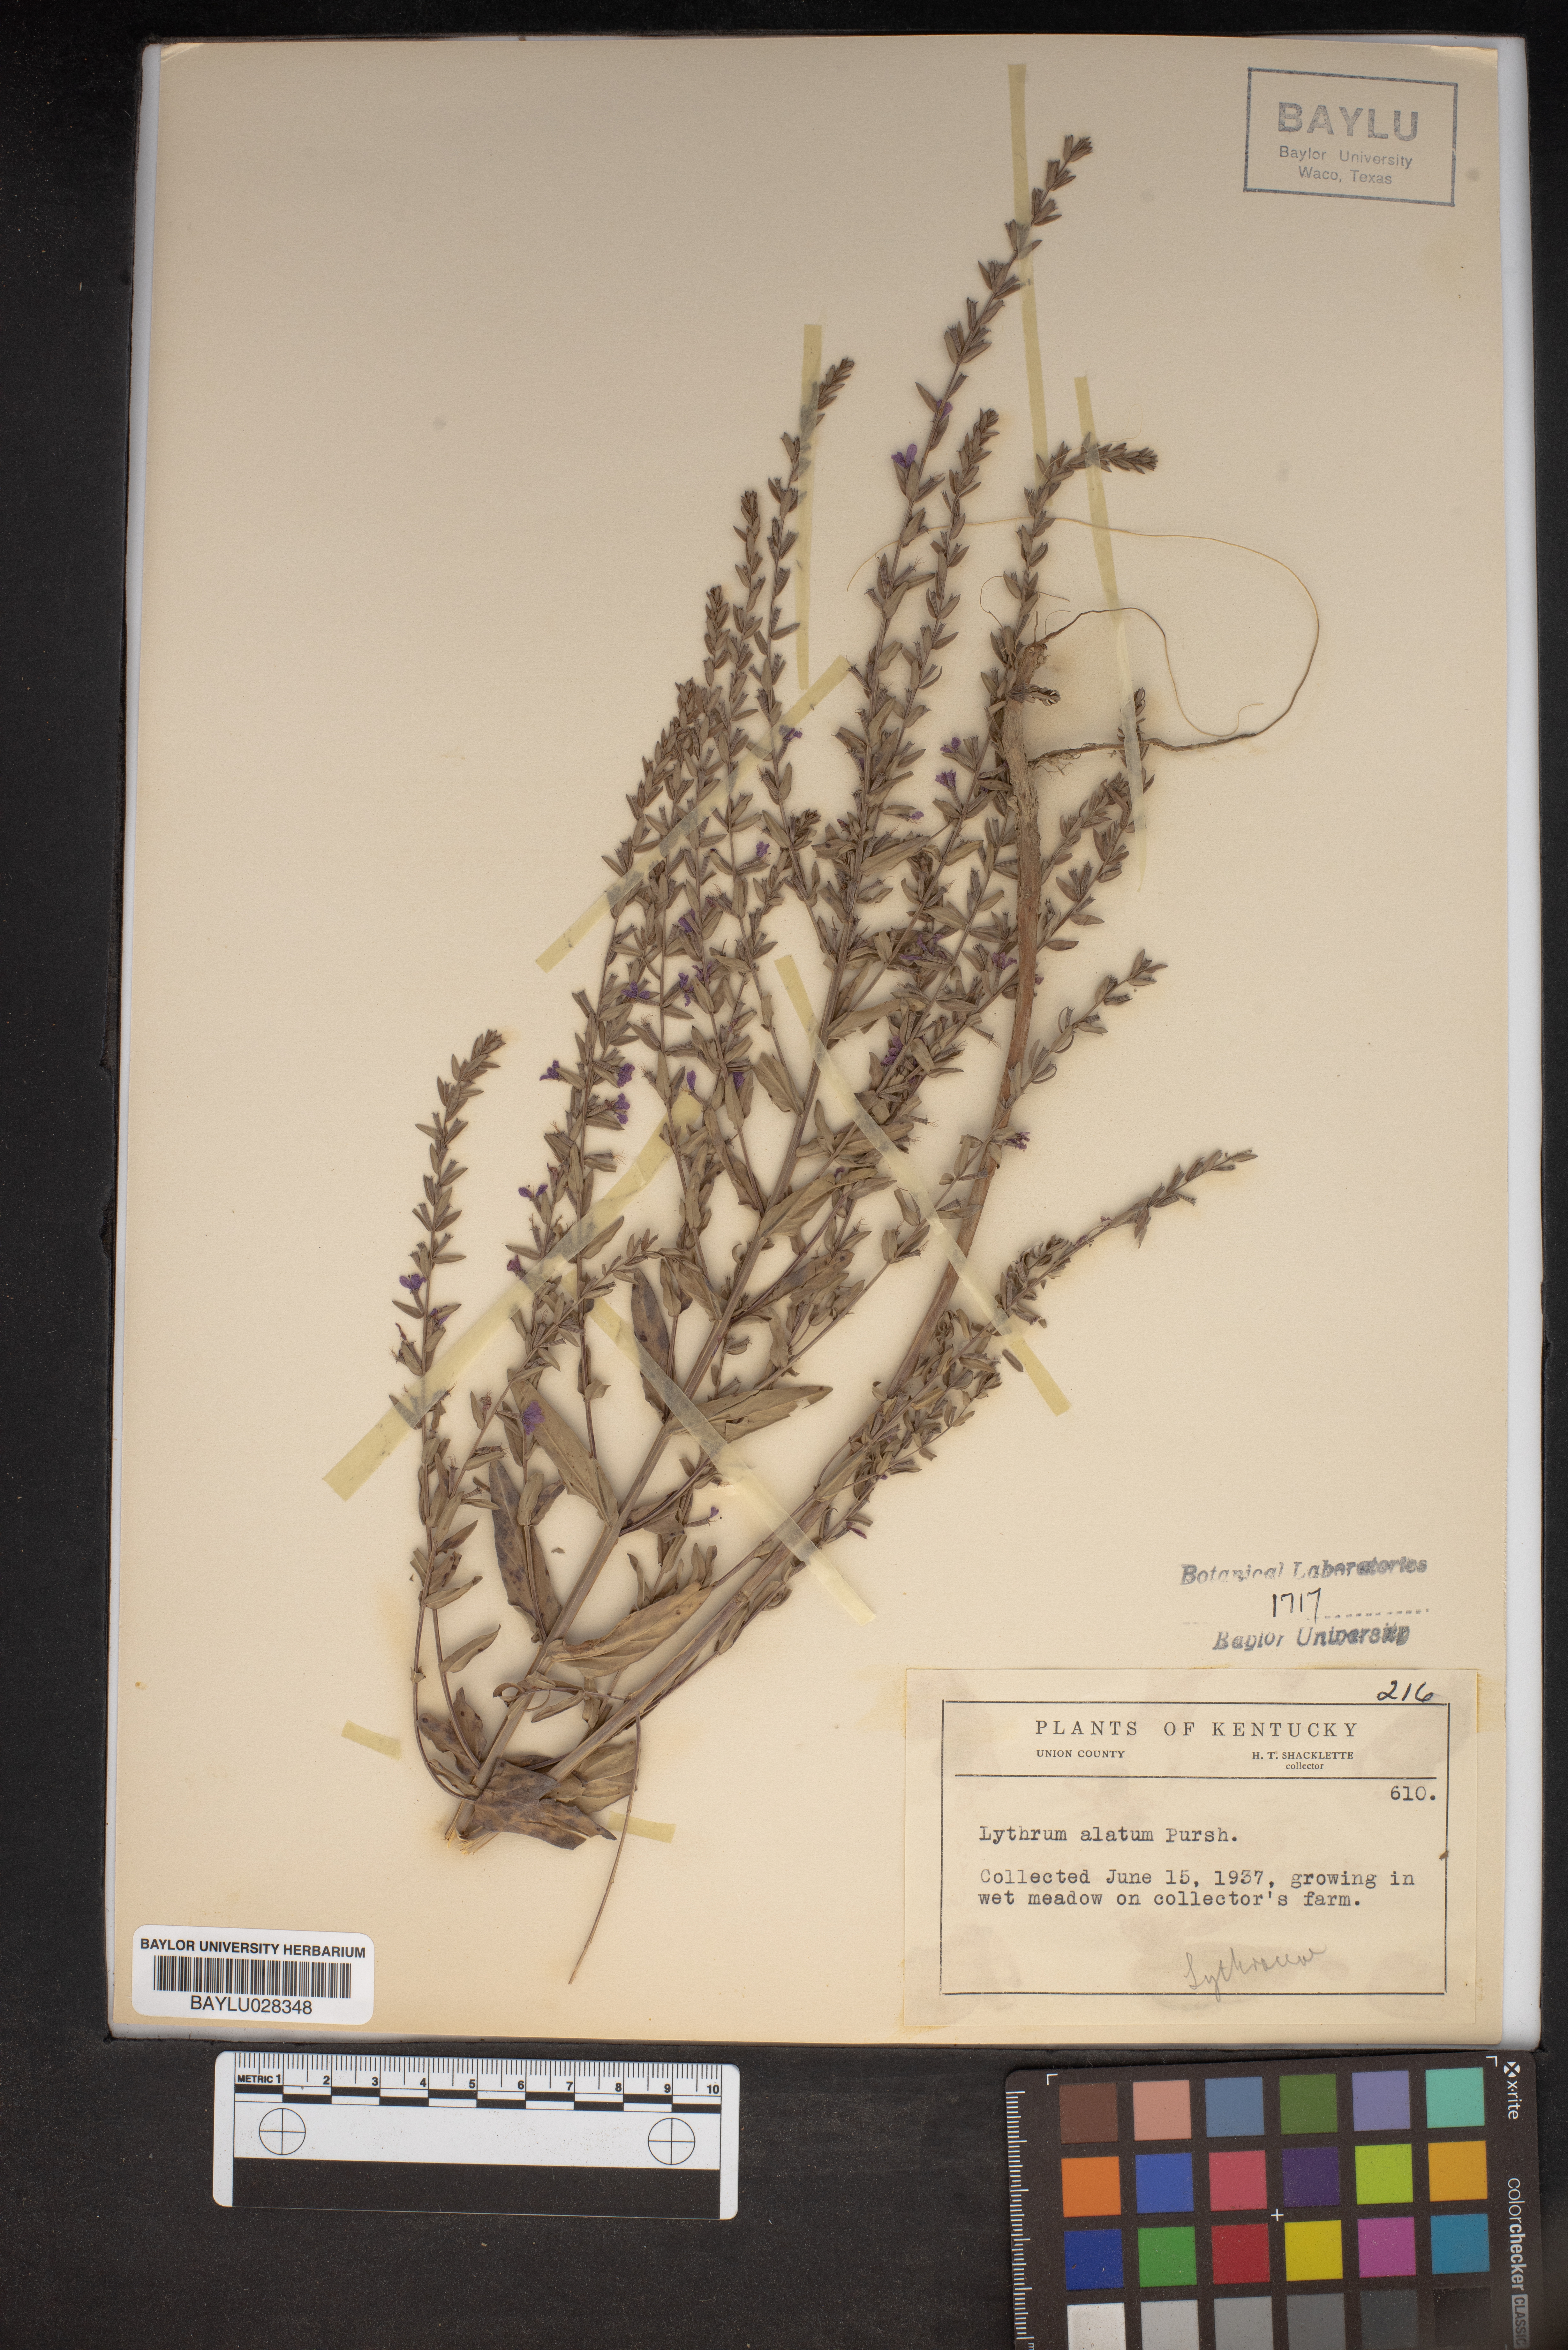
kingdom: Plantae
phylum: Tracheophyta
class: Magnoliopsida
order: Myrtales
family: Lythraceae
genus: Lythrum
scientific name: Lythrum alatum
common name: Winged loosestrife
